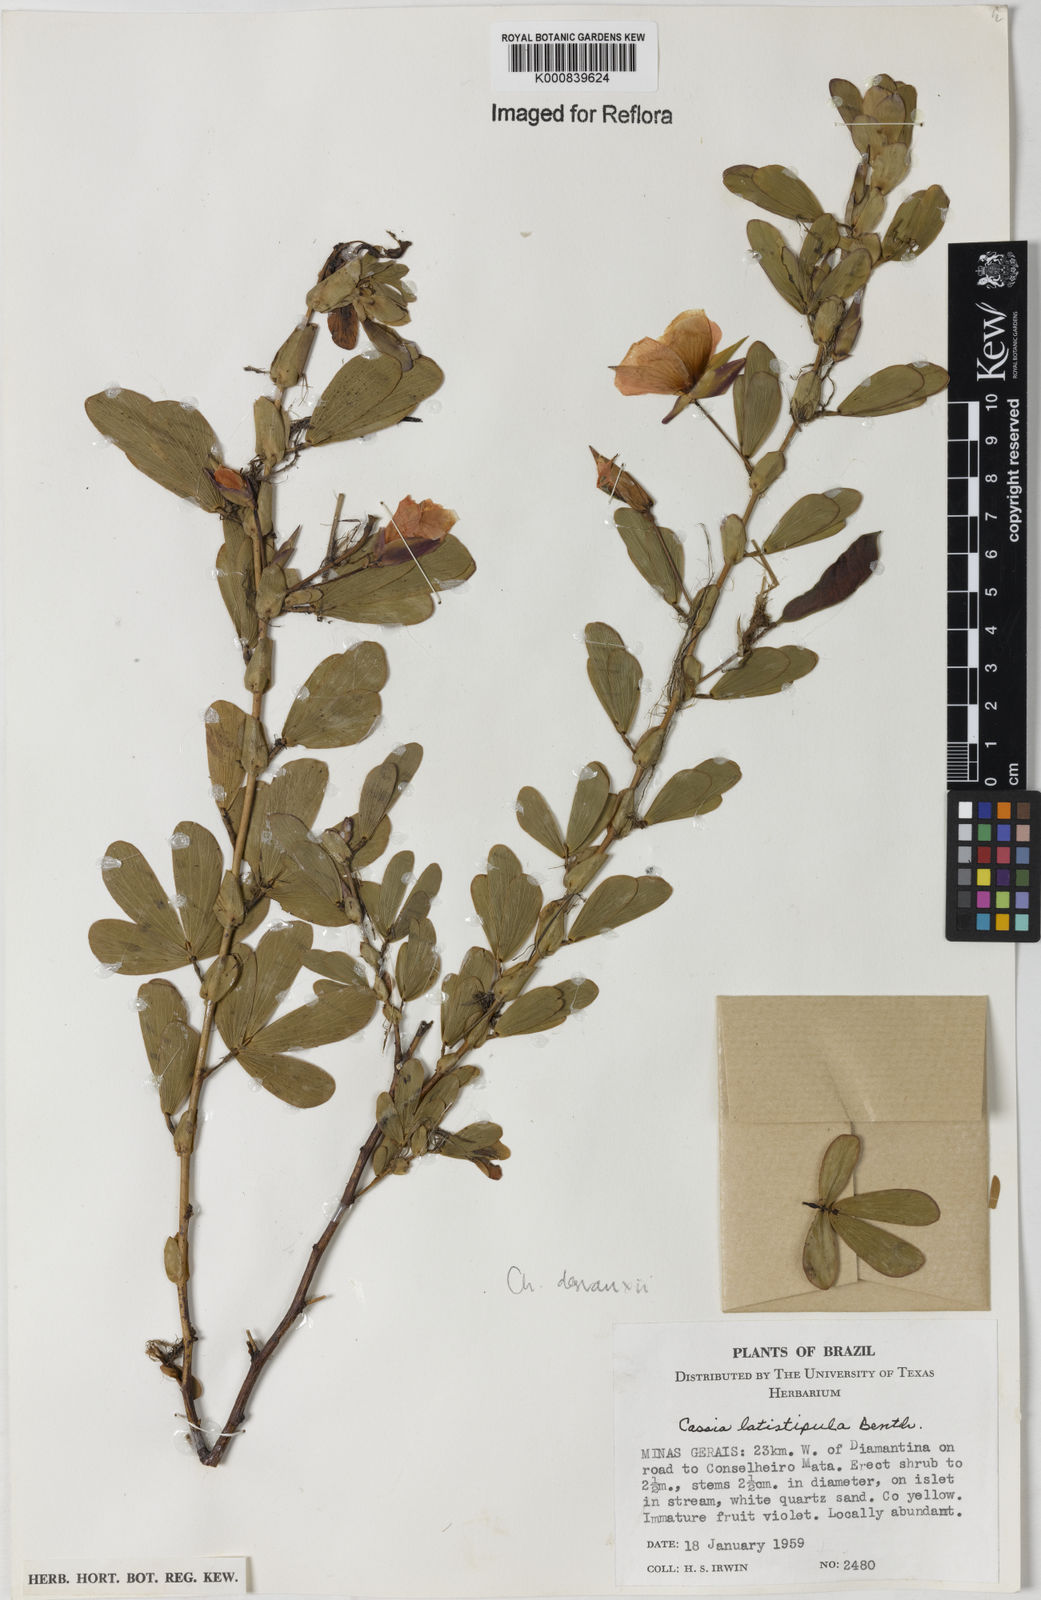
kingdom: Plantae
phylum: Tracheophyta
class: Magnoliopsida
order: Fabales
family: Fabaceae
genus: Chamaecrista
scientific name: Chamaecrista desvauxii
